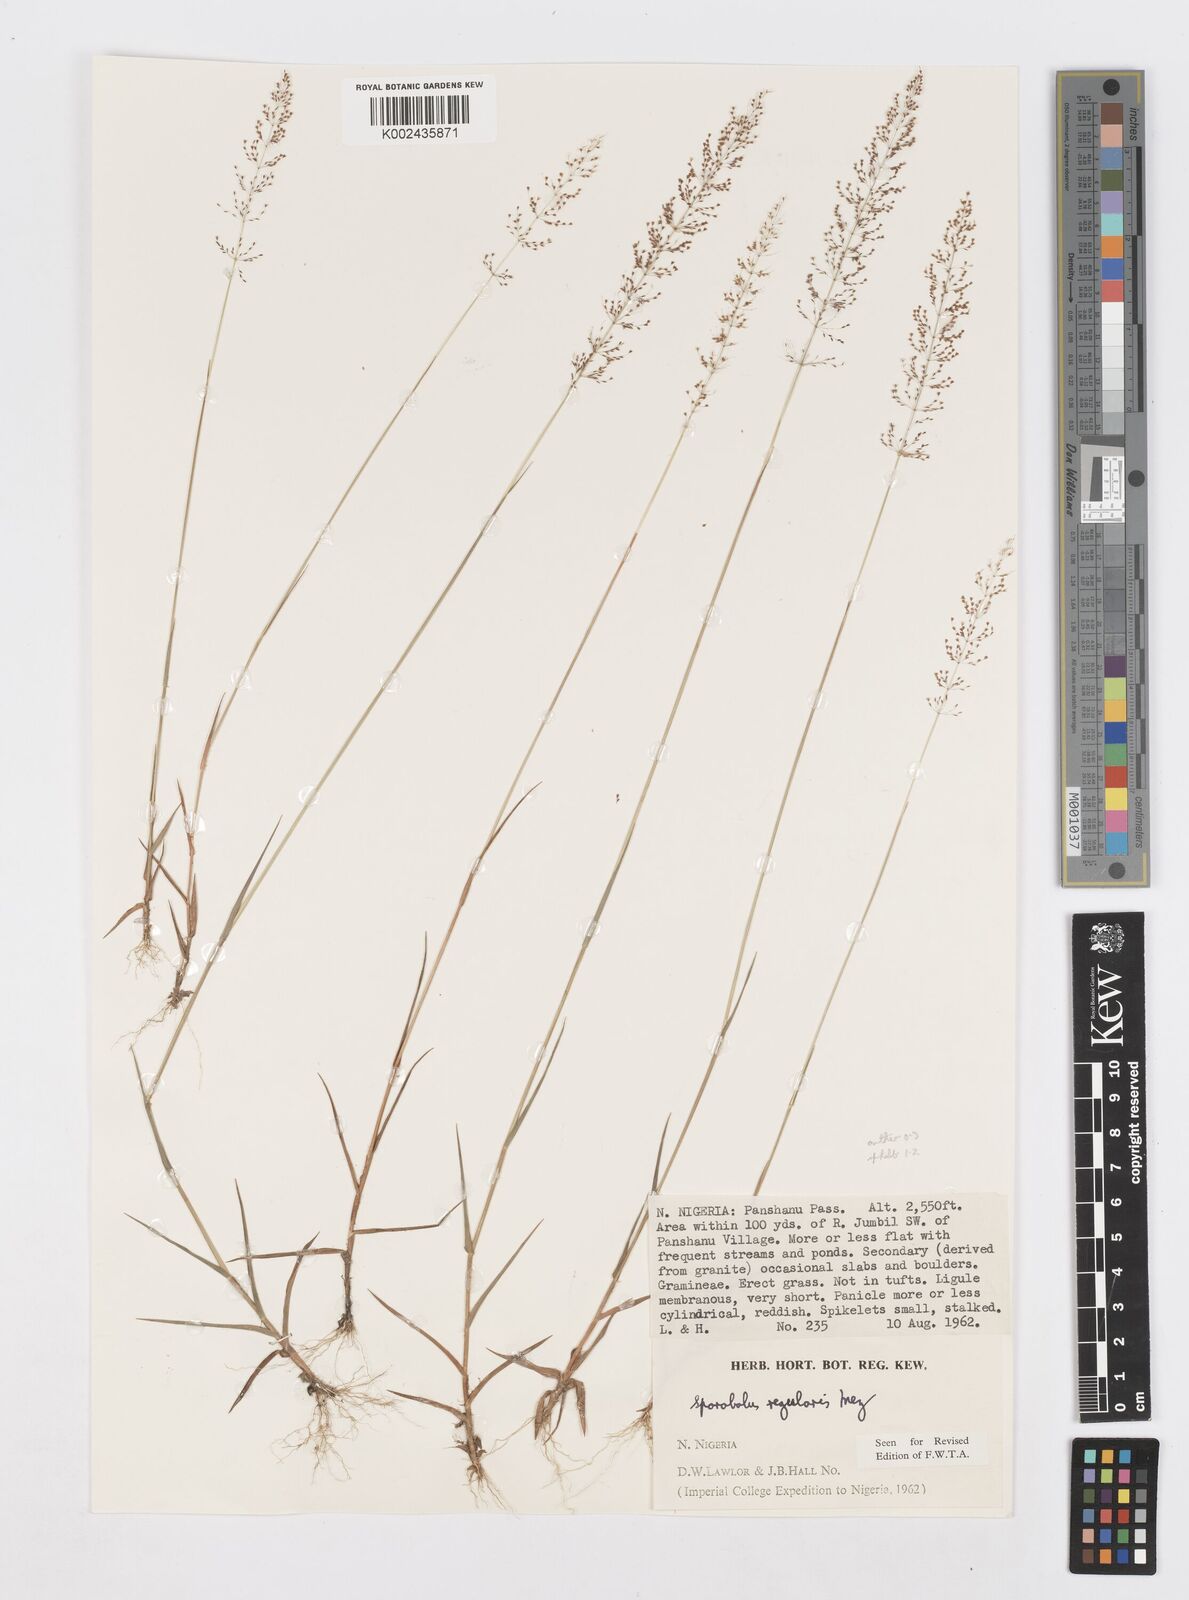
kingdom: Plantae
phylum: Tracheophyta
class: Liliopsida
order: Poales
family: Poaceae
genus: Sporobolus
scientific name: Sporobolus micranthus
